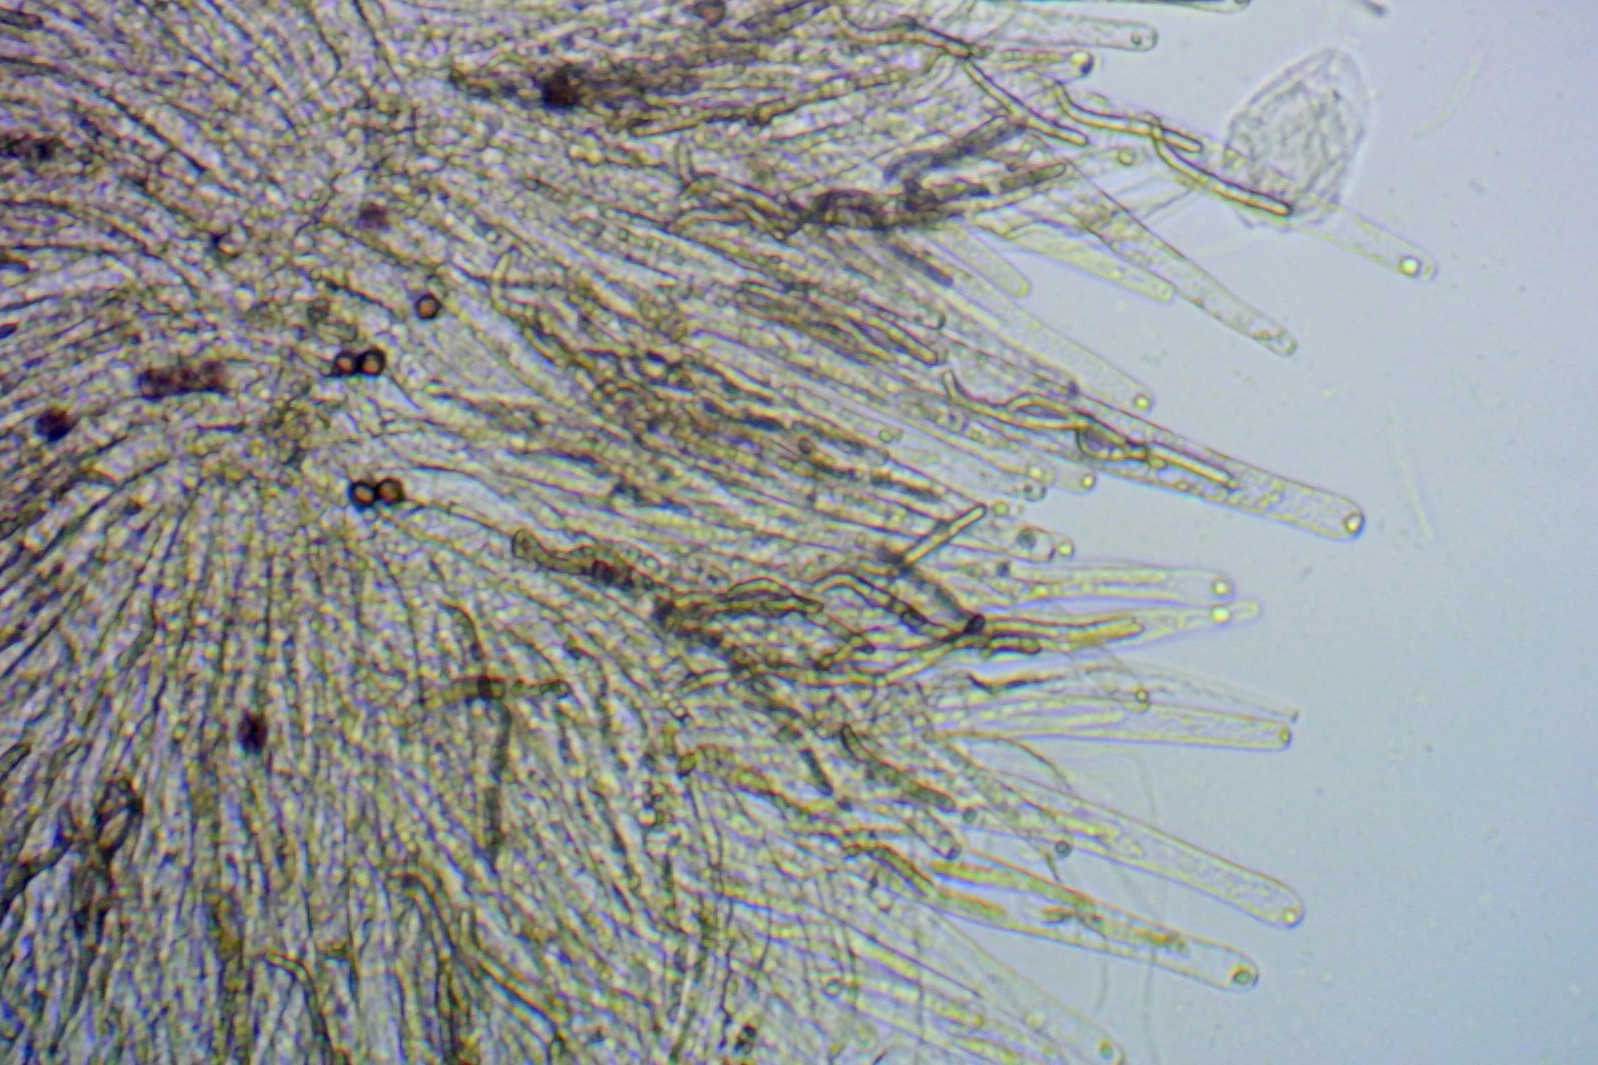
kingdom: Fungi
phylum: Ascomycota
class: Sordariomycetes
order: Sordariales
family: Lasiosphaeriaceae
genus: Lasiosphaeria
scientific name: Lasiosphaeria ovina
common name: fåre-kernesvamp
